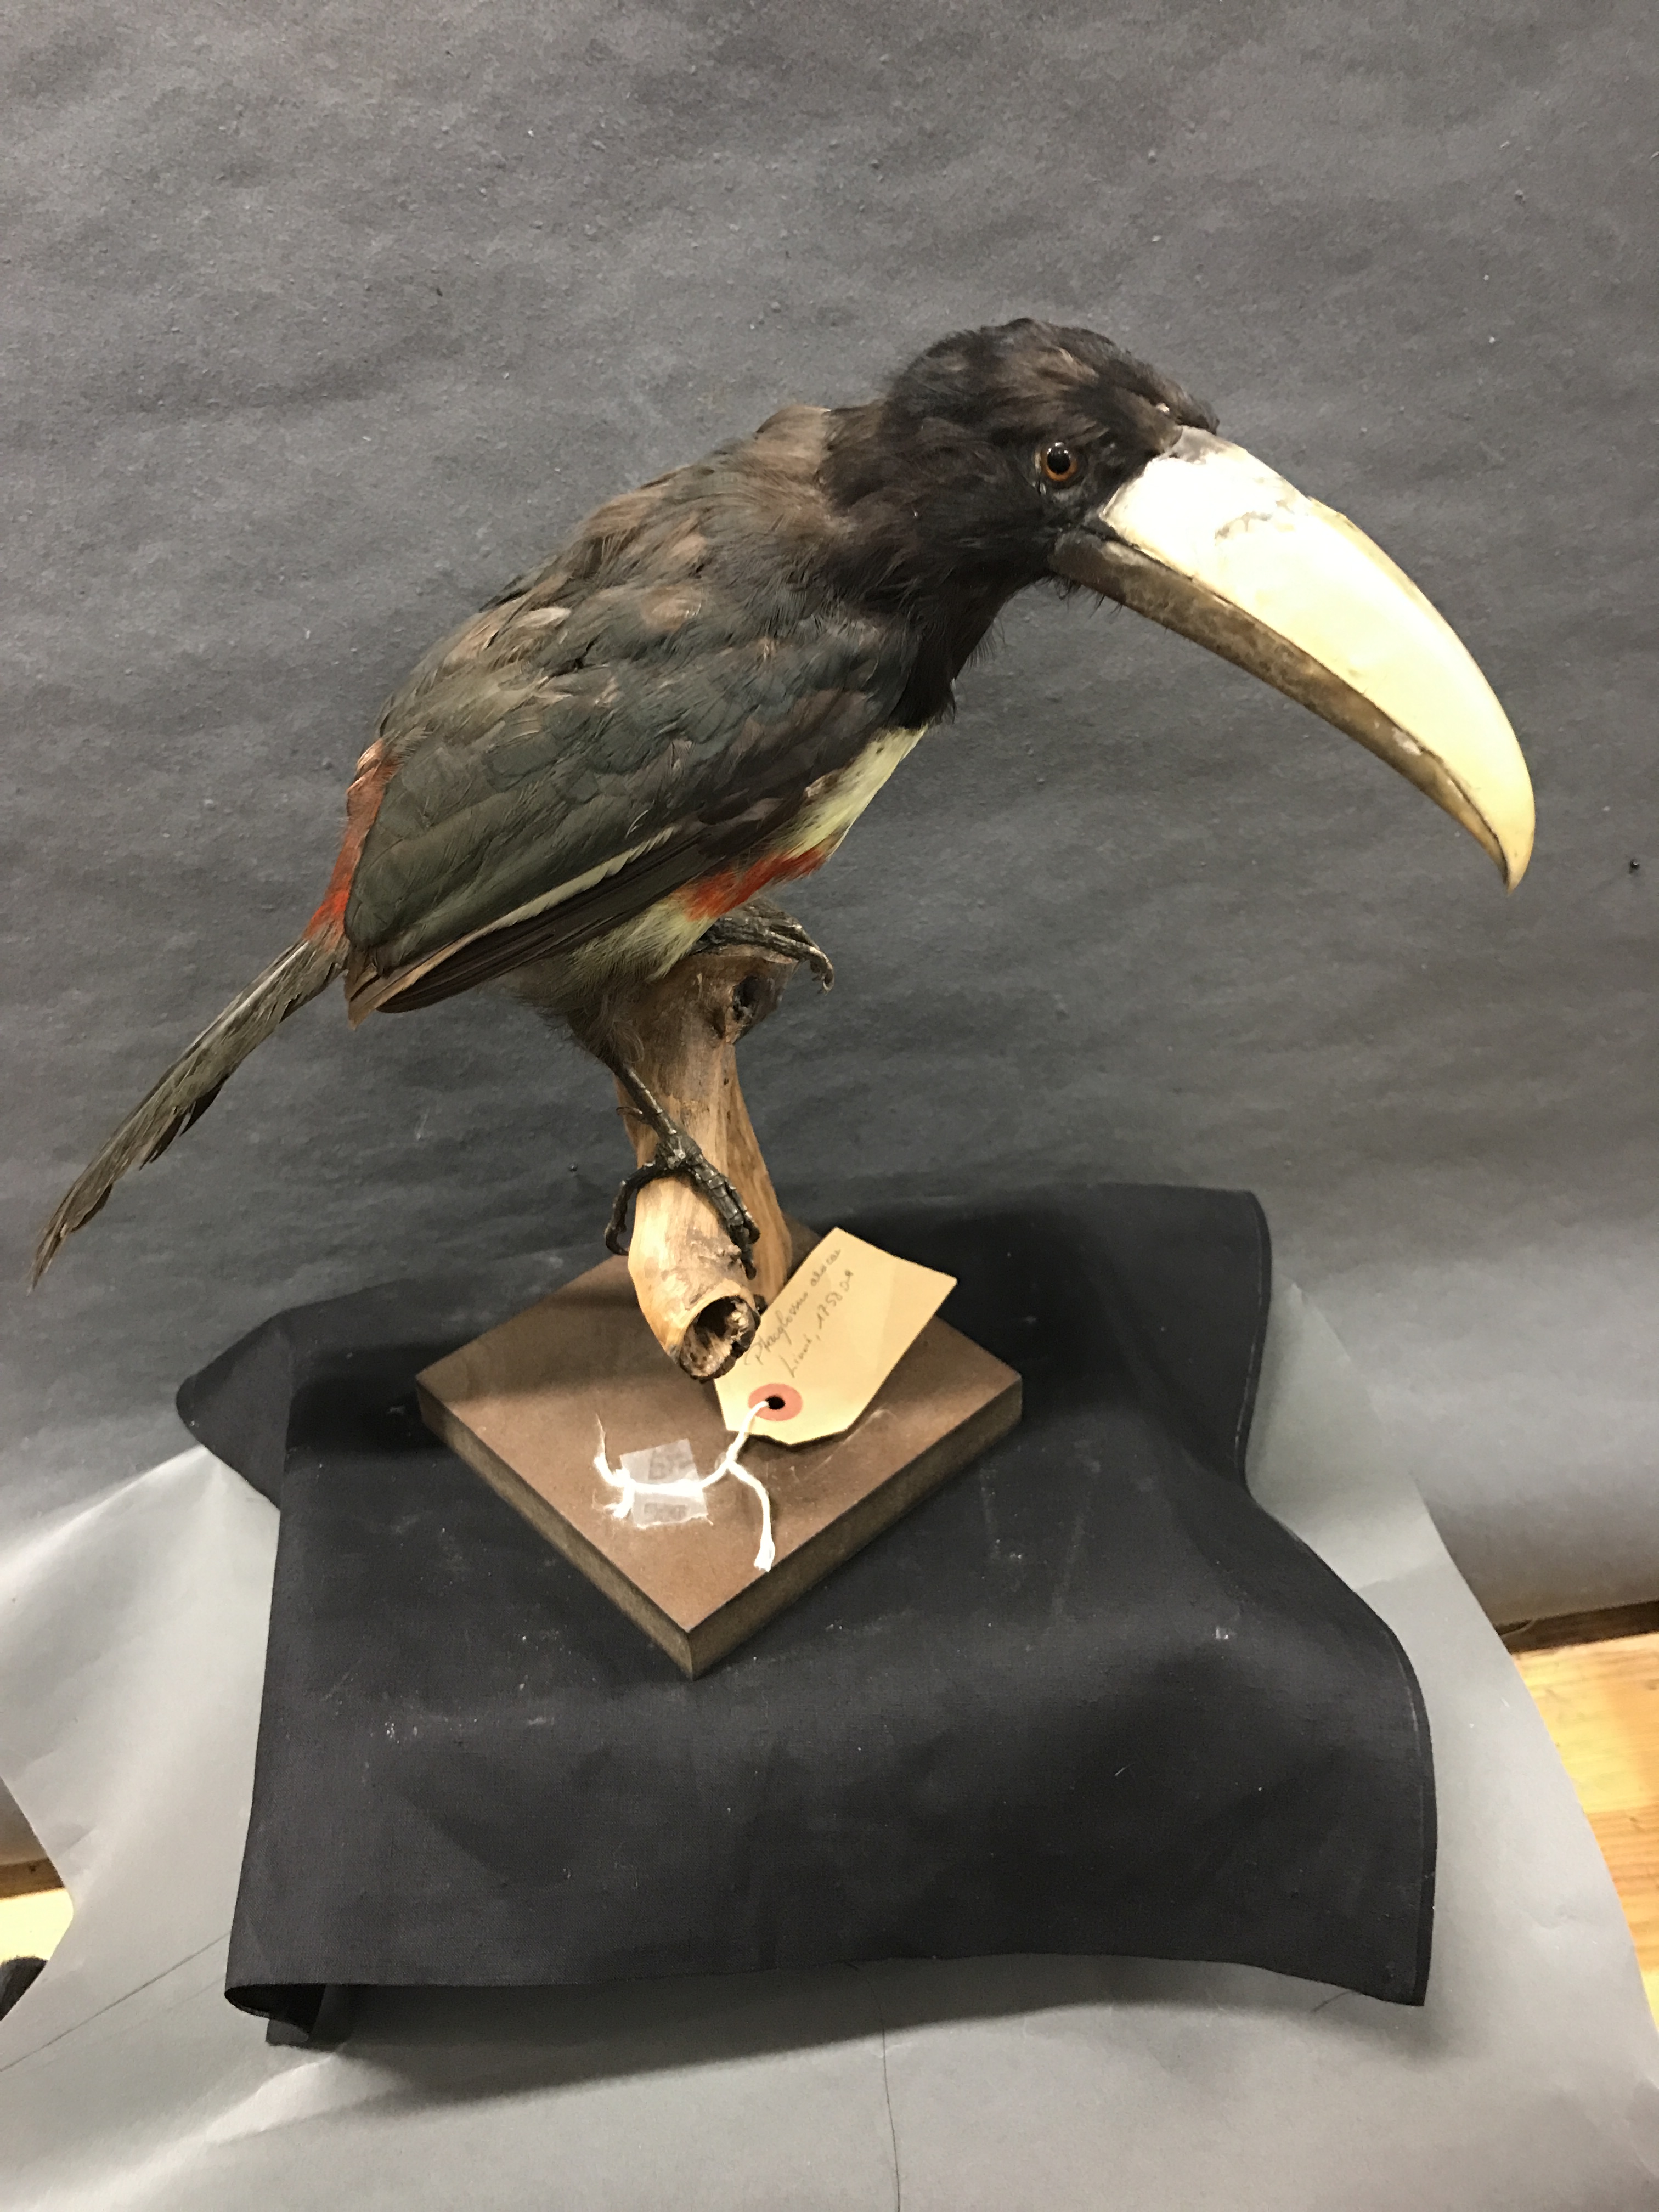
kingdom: Animalia
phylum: Chordata
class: Aves
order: Piciformes
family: Ramphastidae
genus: Pteroglossus
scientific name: Pteroglossus aracari
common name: Black-necked aracari
